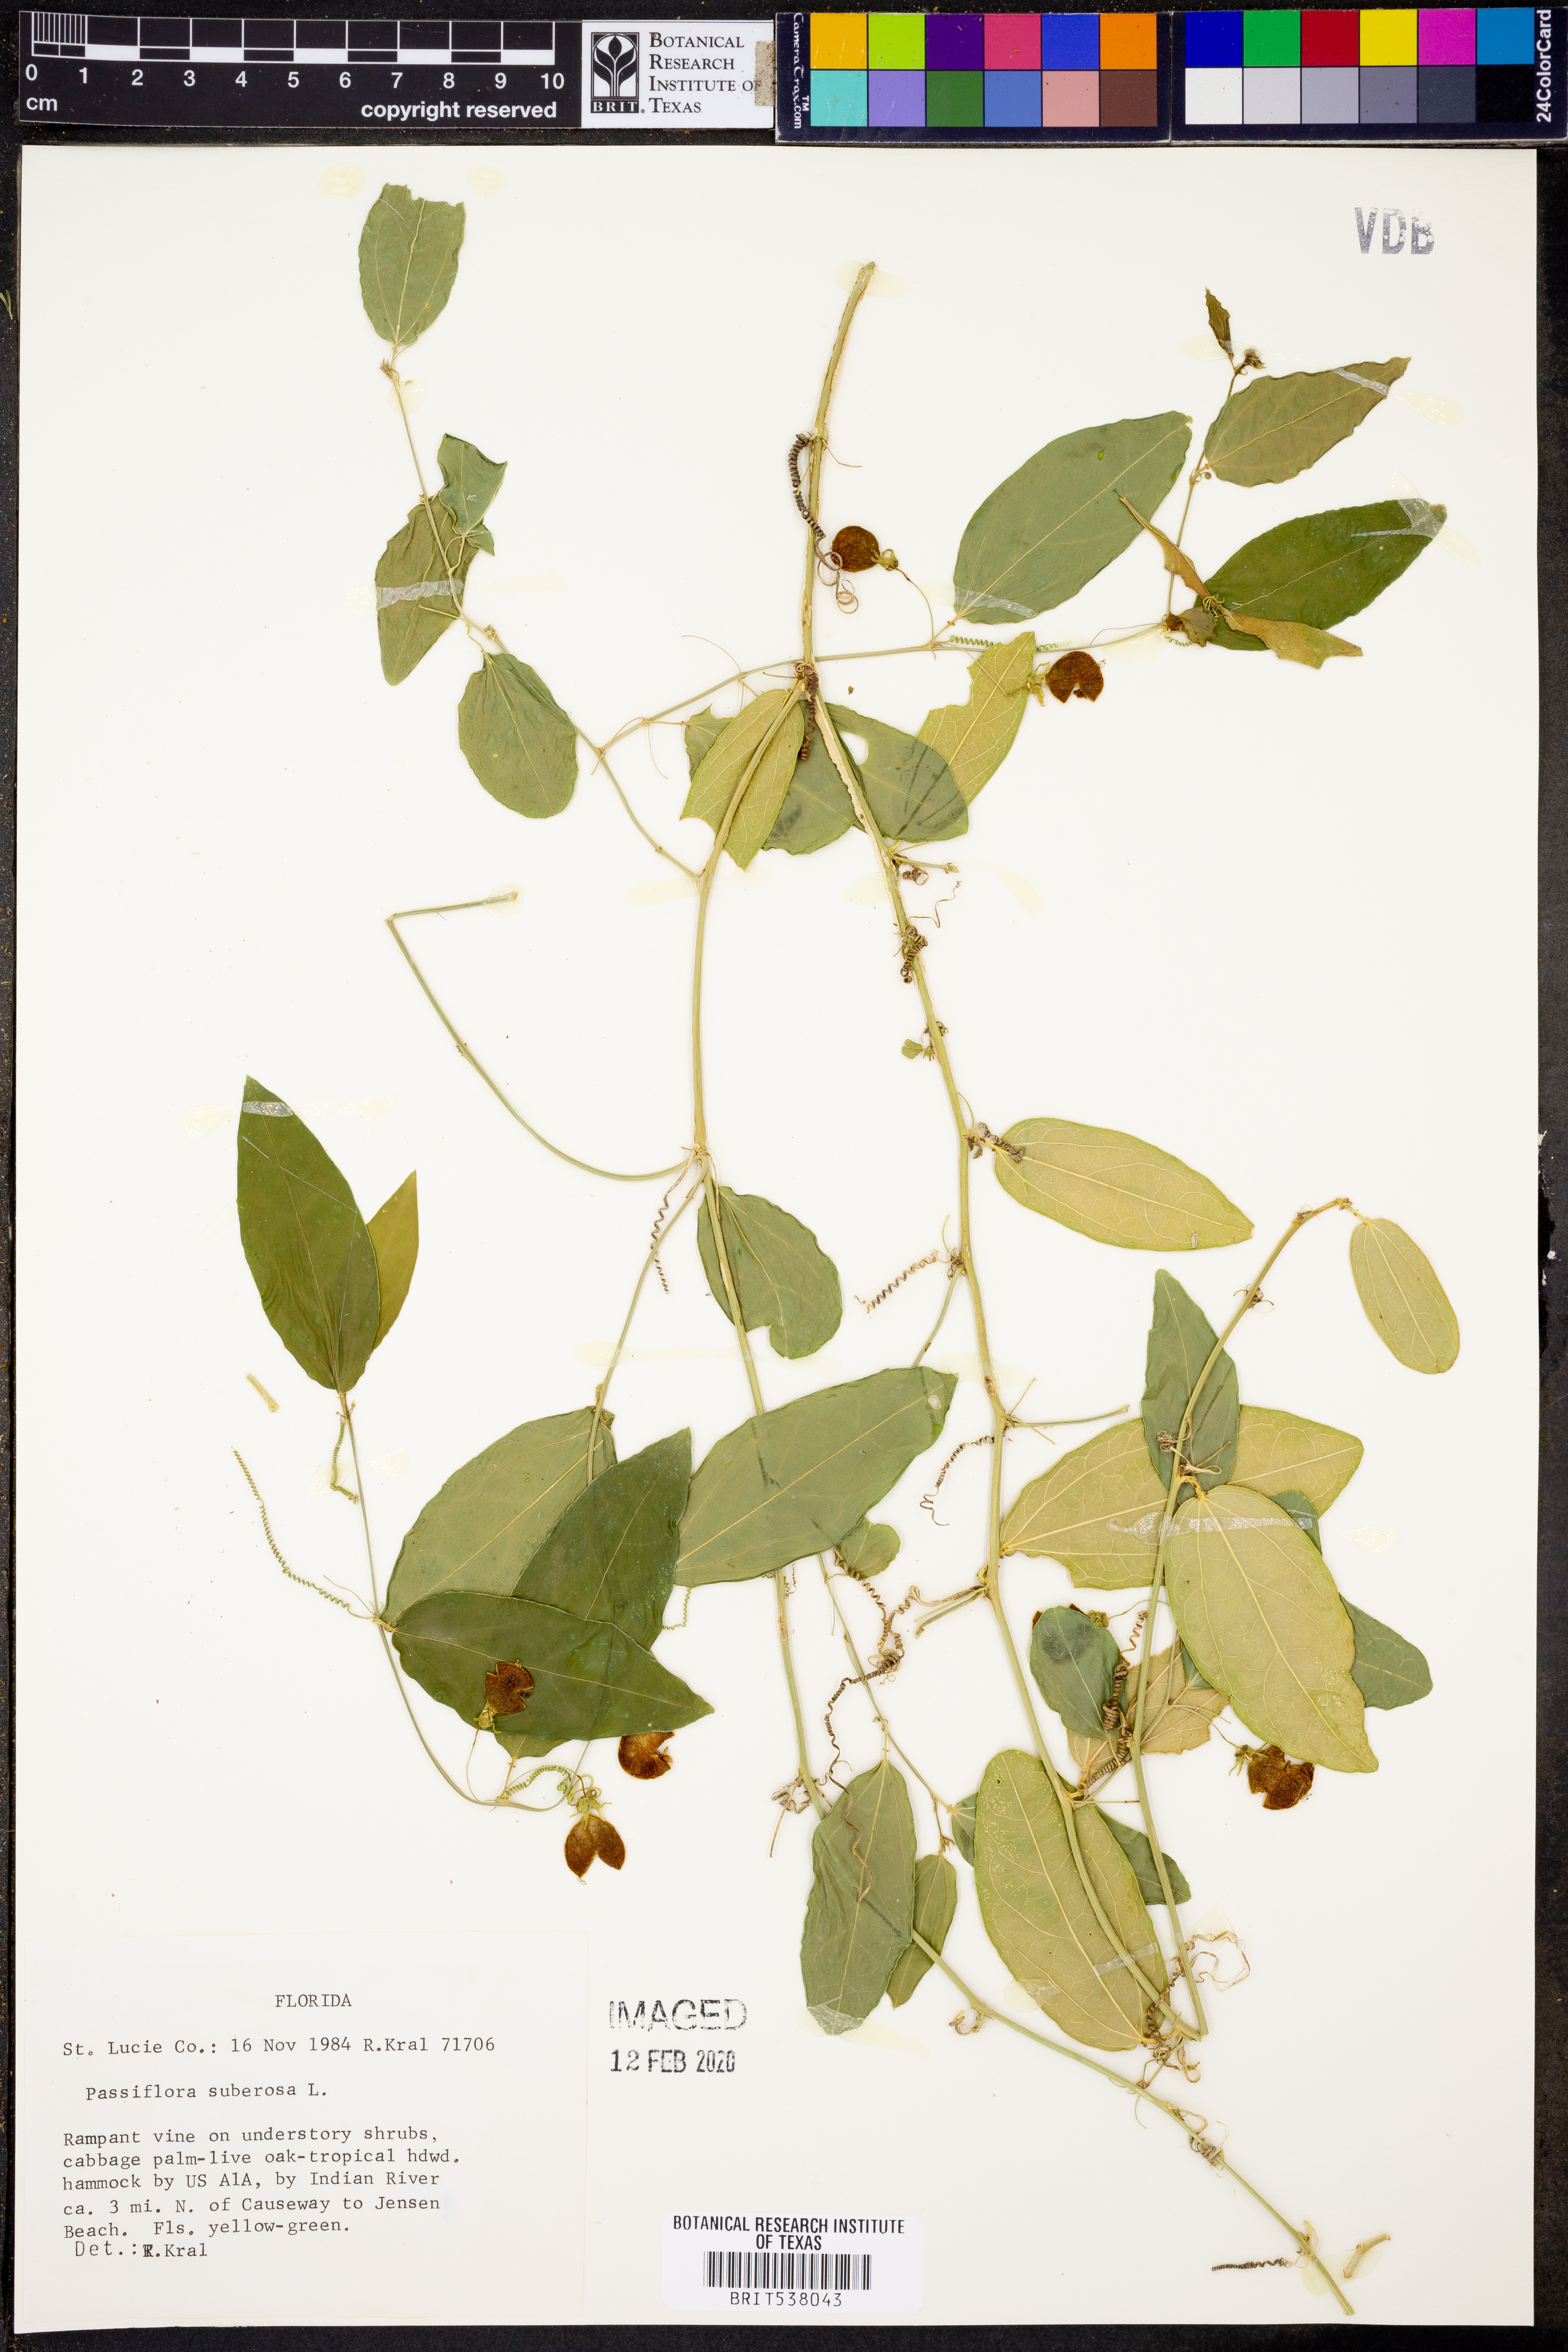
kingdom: Plantae
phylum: Tracheophyta
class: Magnoliopsida
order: Malpighiales
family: Passifloraceae
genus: Passiflora
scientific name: Passiflora suberosa
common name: Wild passionfruit
